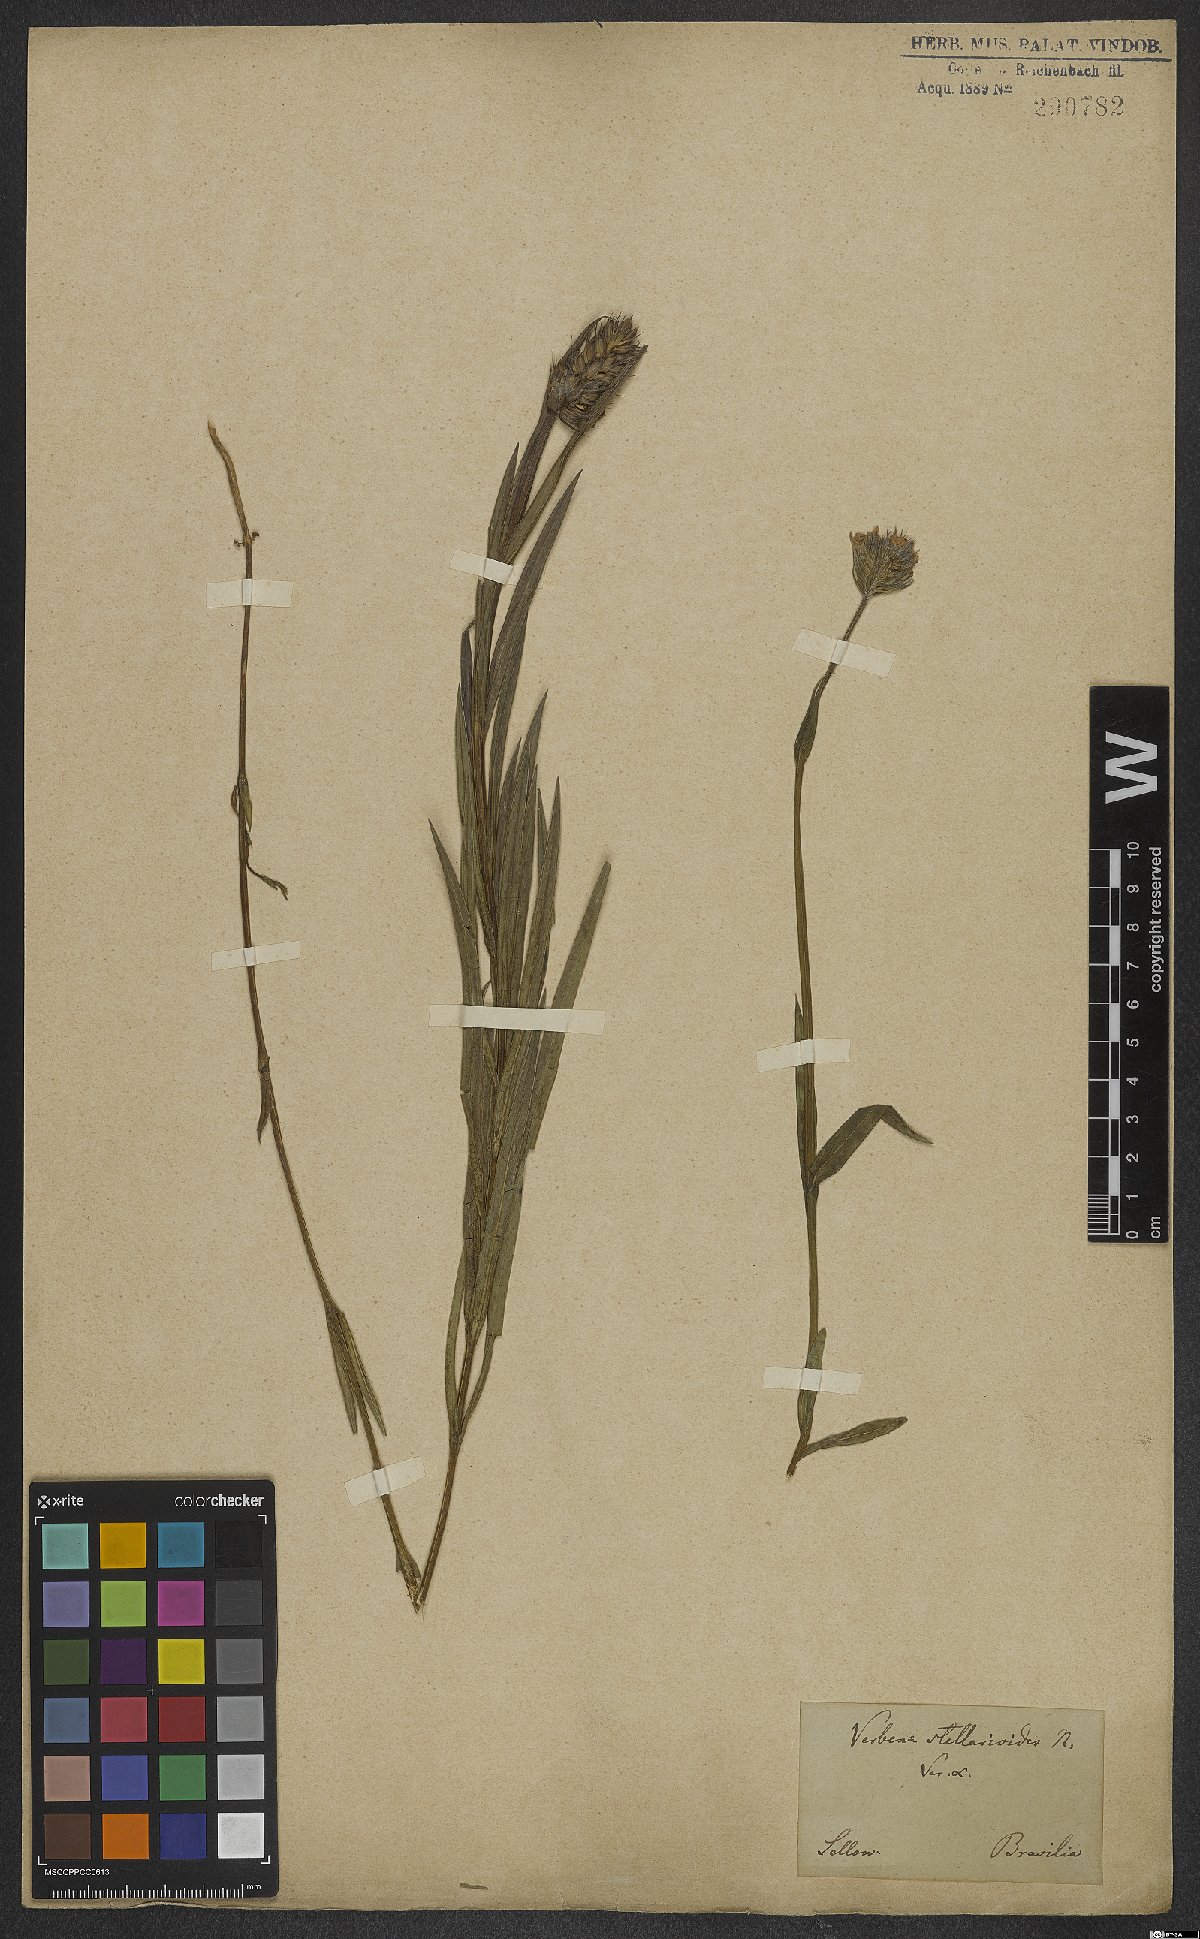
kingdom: Plantae
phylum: Tracheophyta
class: Magnoliopsida
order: Lamiales
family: Verbenaceae
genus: Verbena
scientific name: Verbena stellarioides
